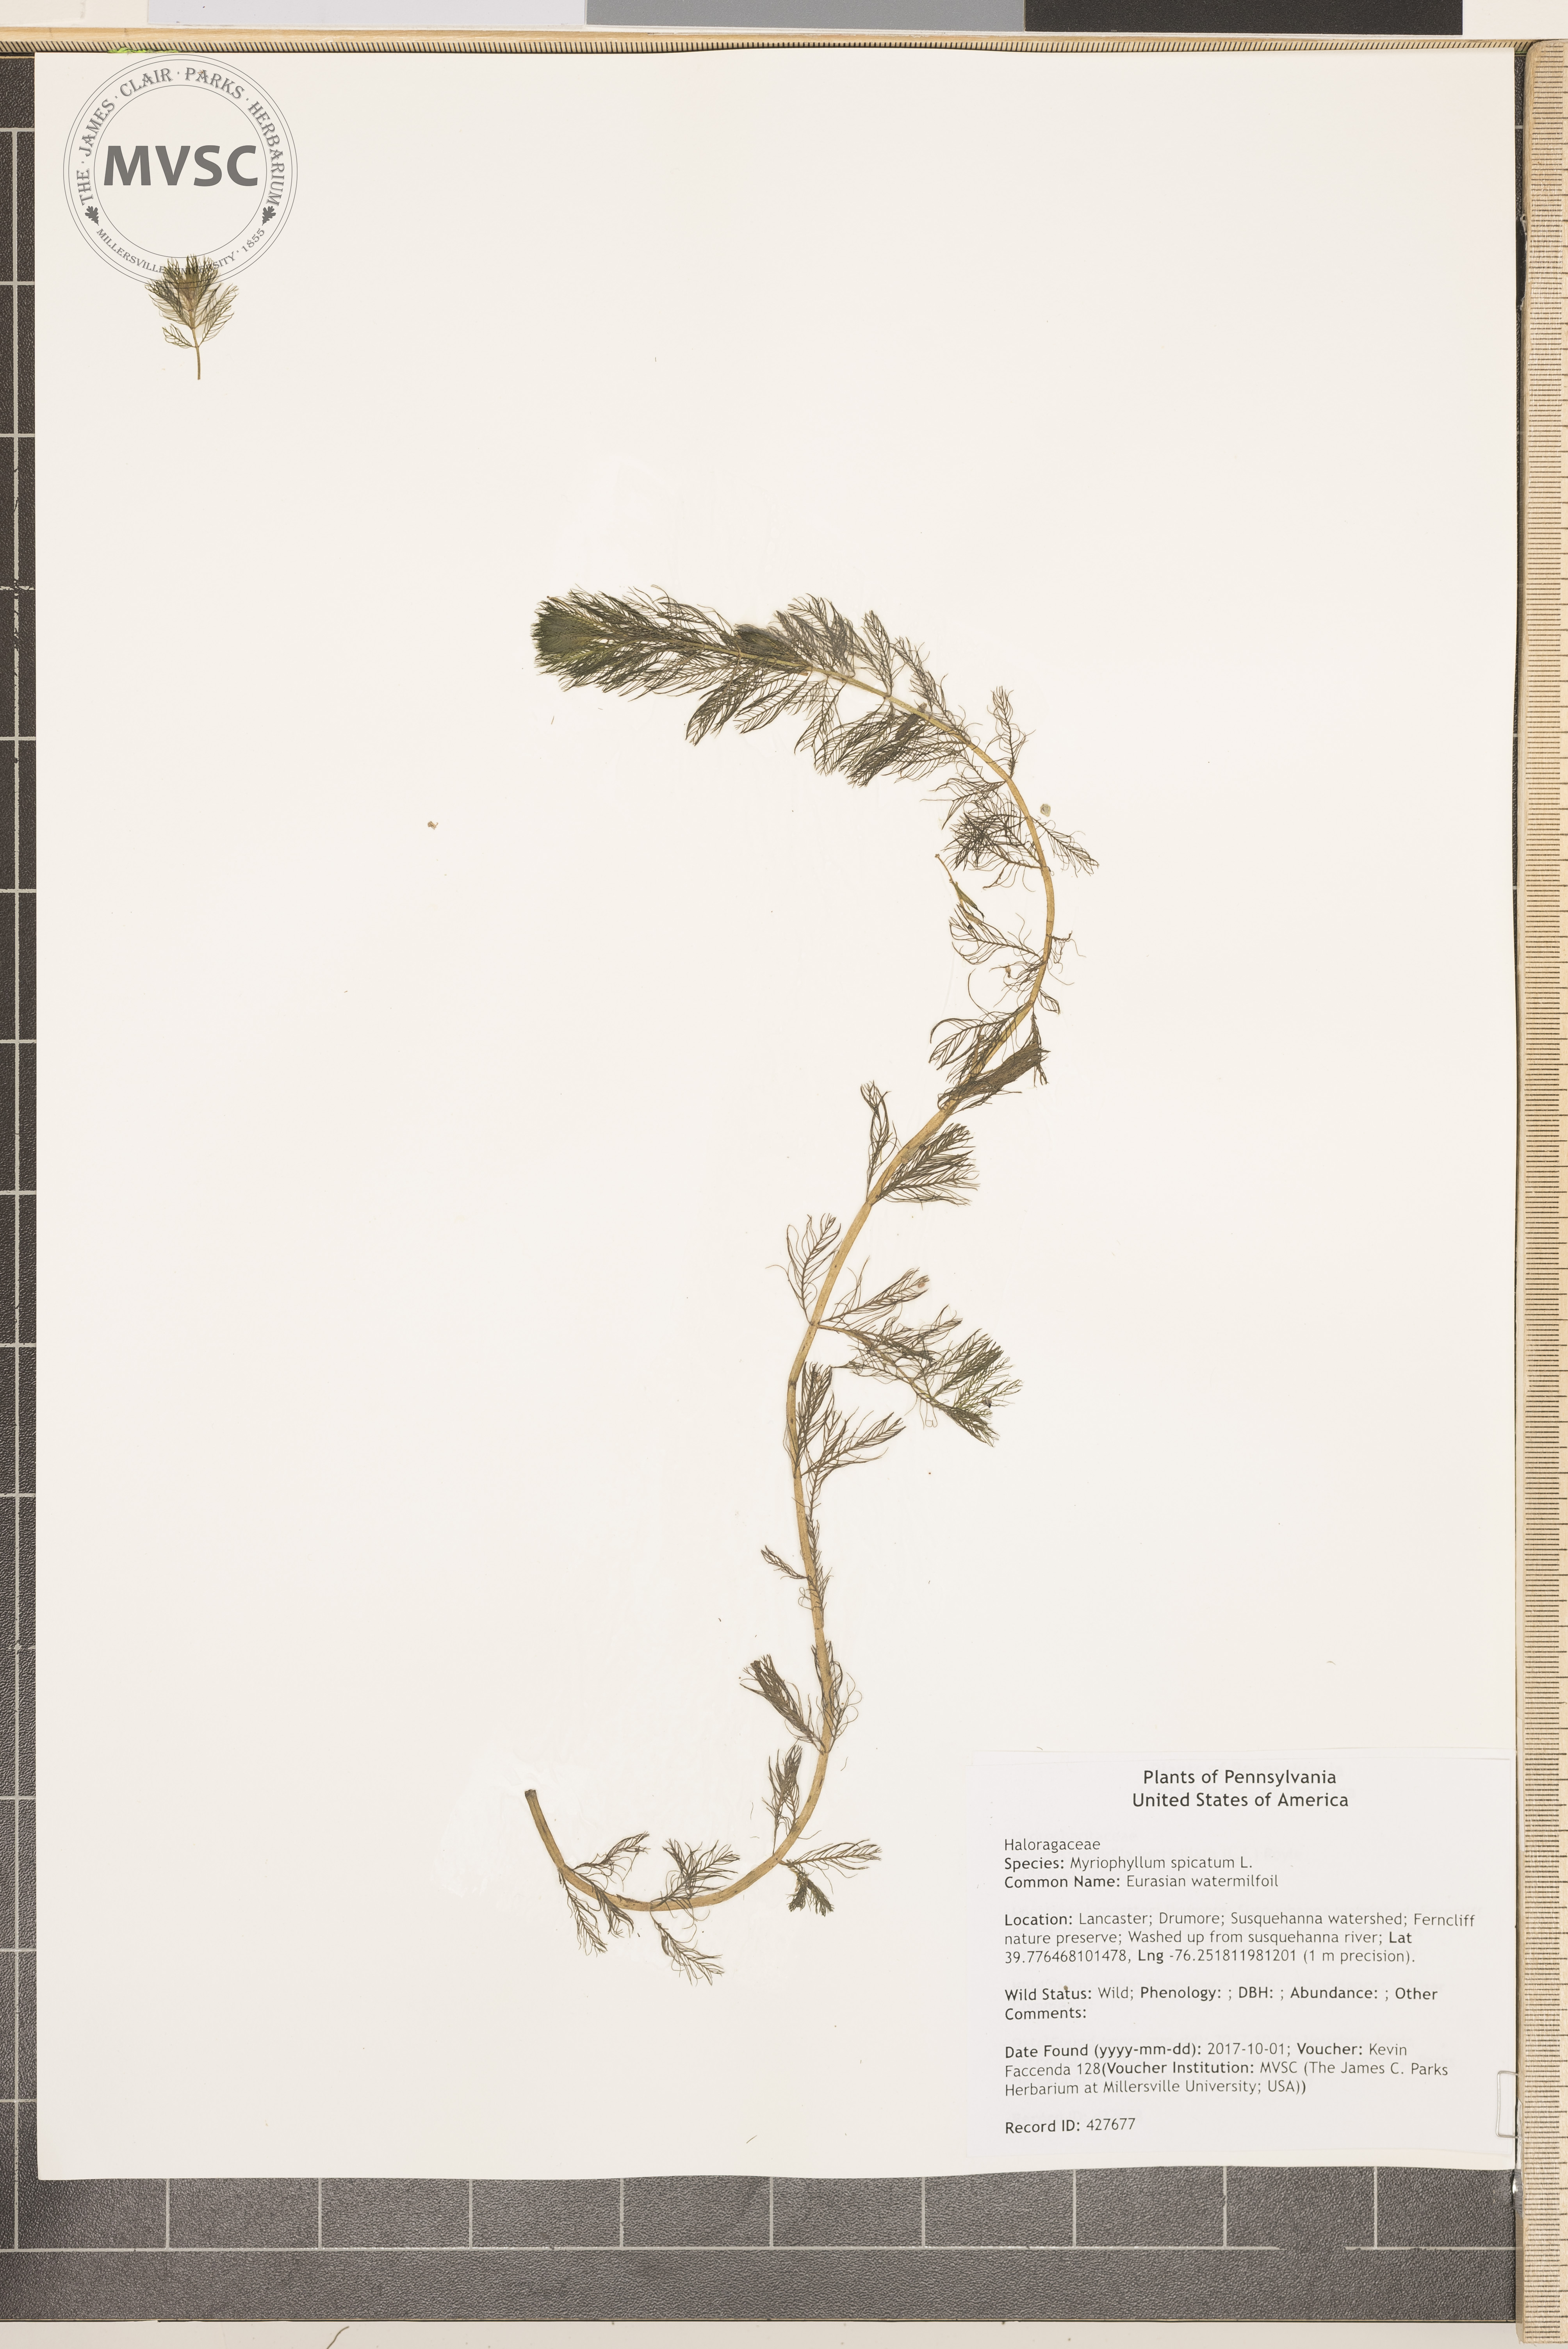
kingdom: Plantae
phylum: Tracheophyta
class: Magnoliopsida
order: Saxifragales
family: Haloragaceae
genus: Myriophyllum
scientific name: Myriophyllum spicatum
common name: Eurasian watermilfoil
